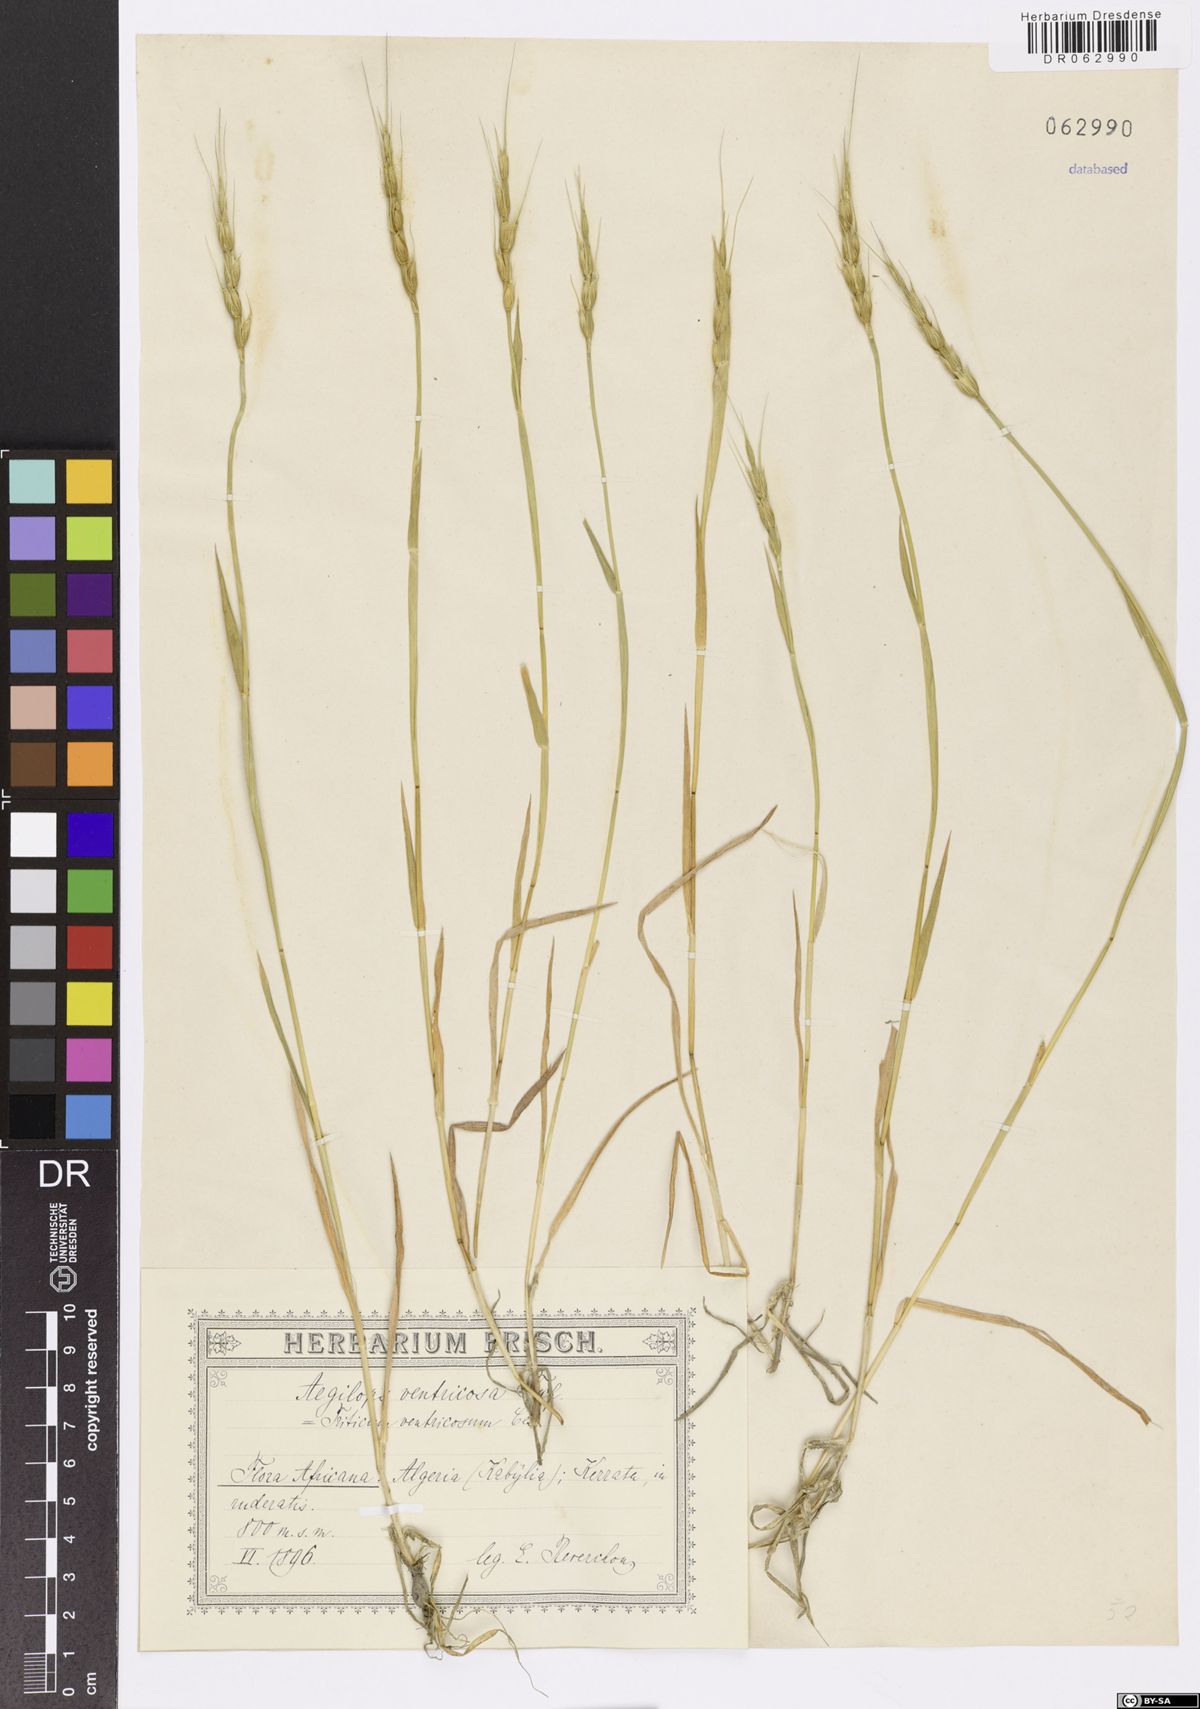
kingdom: Plantae
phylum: Tracheophyta
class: Liliopsida
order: Poales
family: Poaceae
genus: Aegilops
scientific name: Aegilops ventricosa
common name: Swollen goat grass
